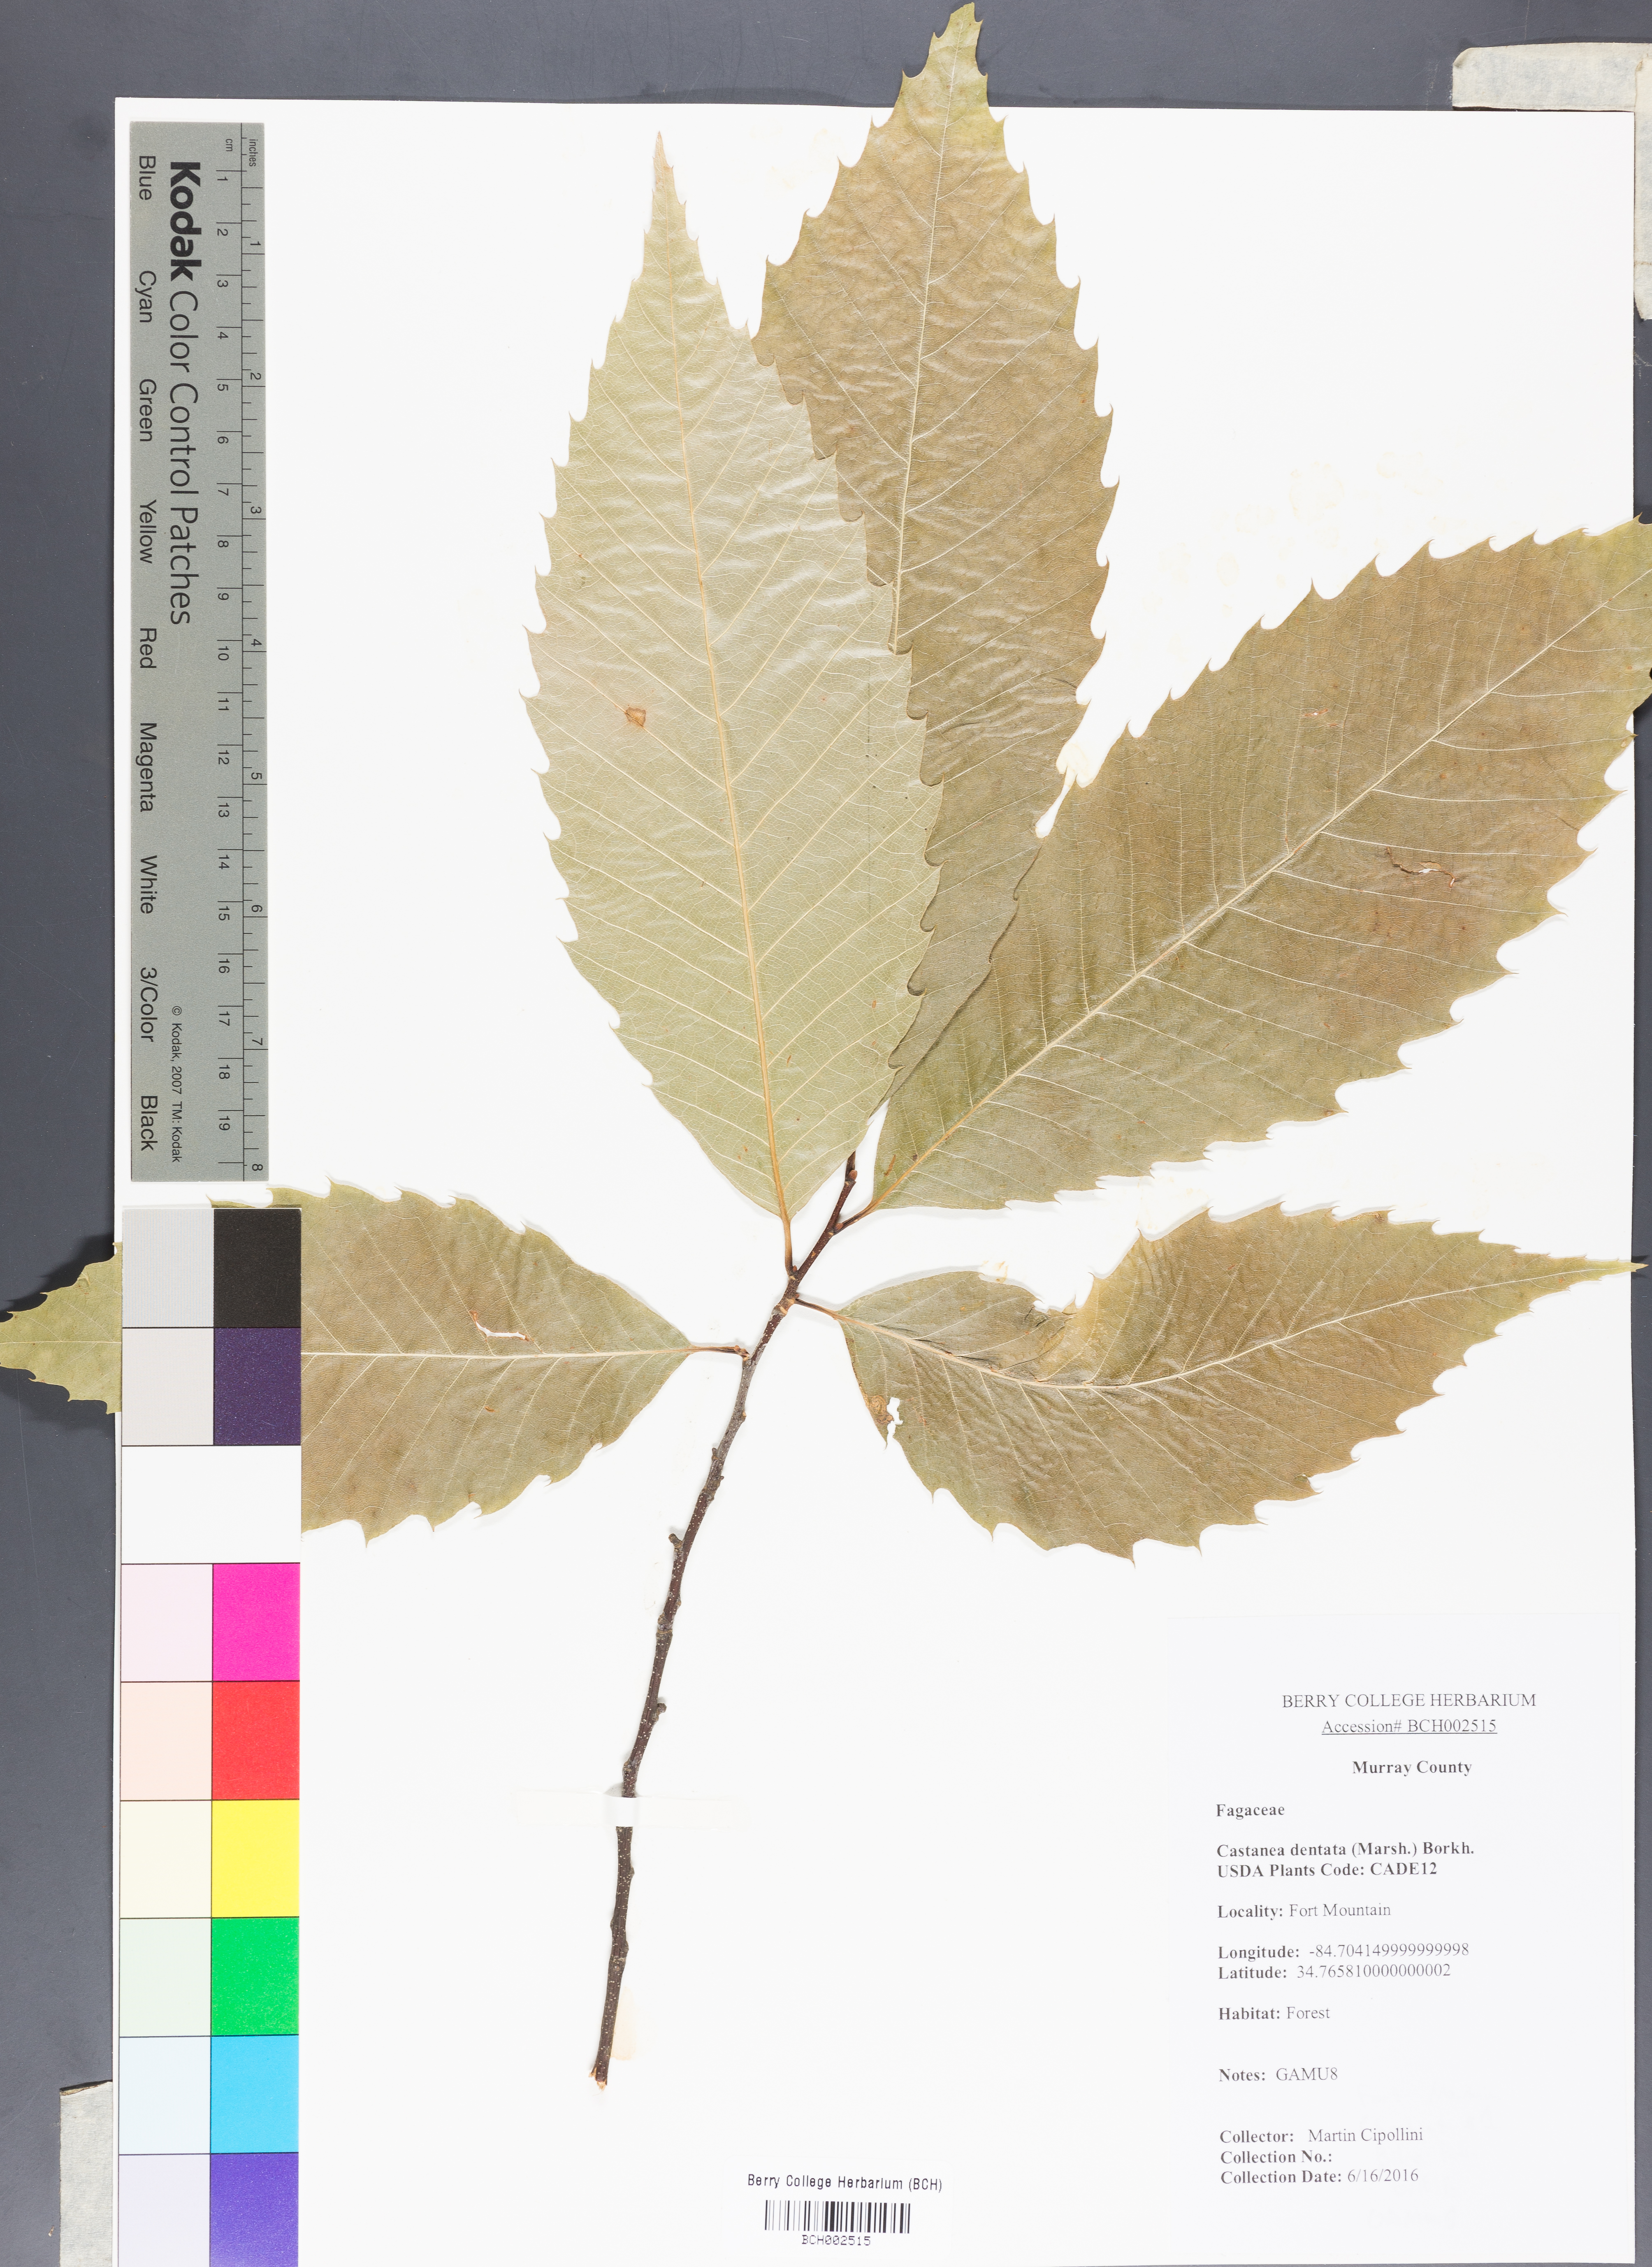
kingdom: Plantae
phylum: Tracheophyta
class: Magnoliopsida
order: Fagales
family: Fagaceae
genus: Castanea
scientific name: Castanea dentata
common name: American chestnut
